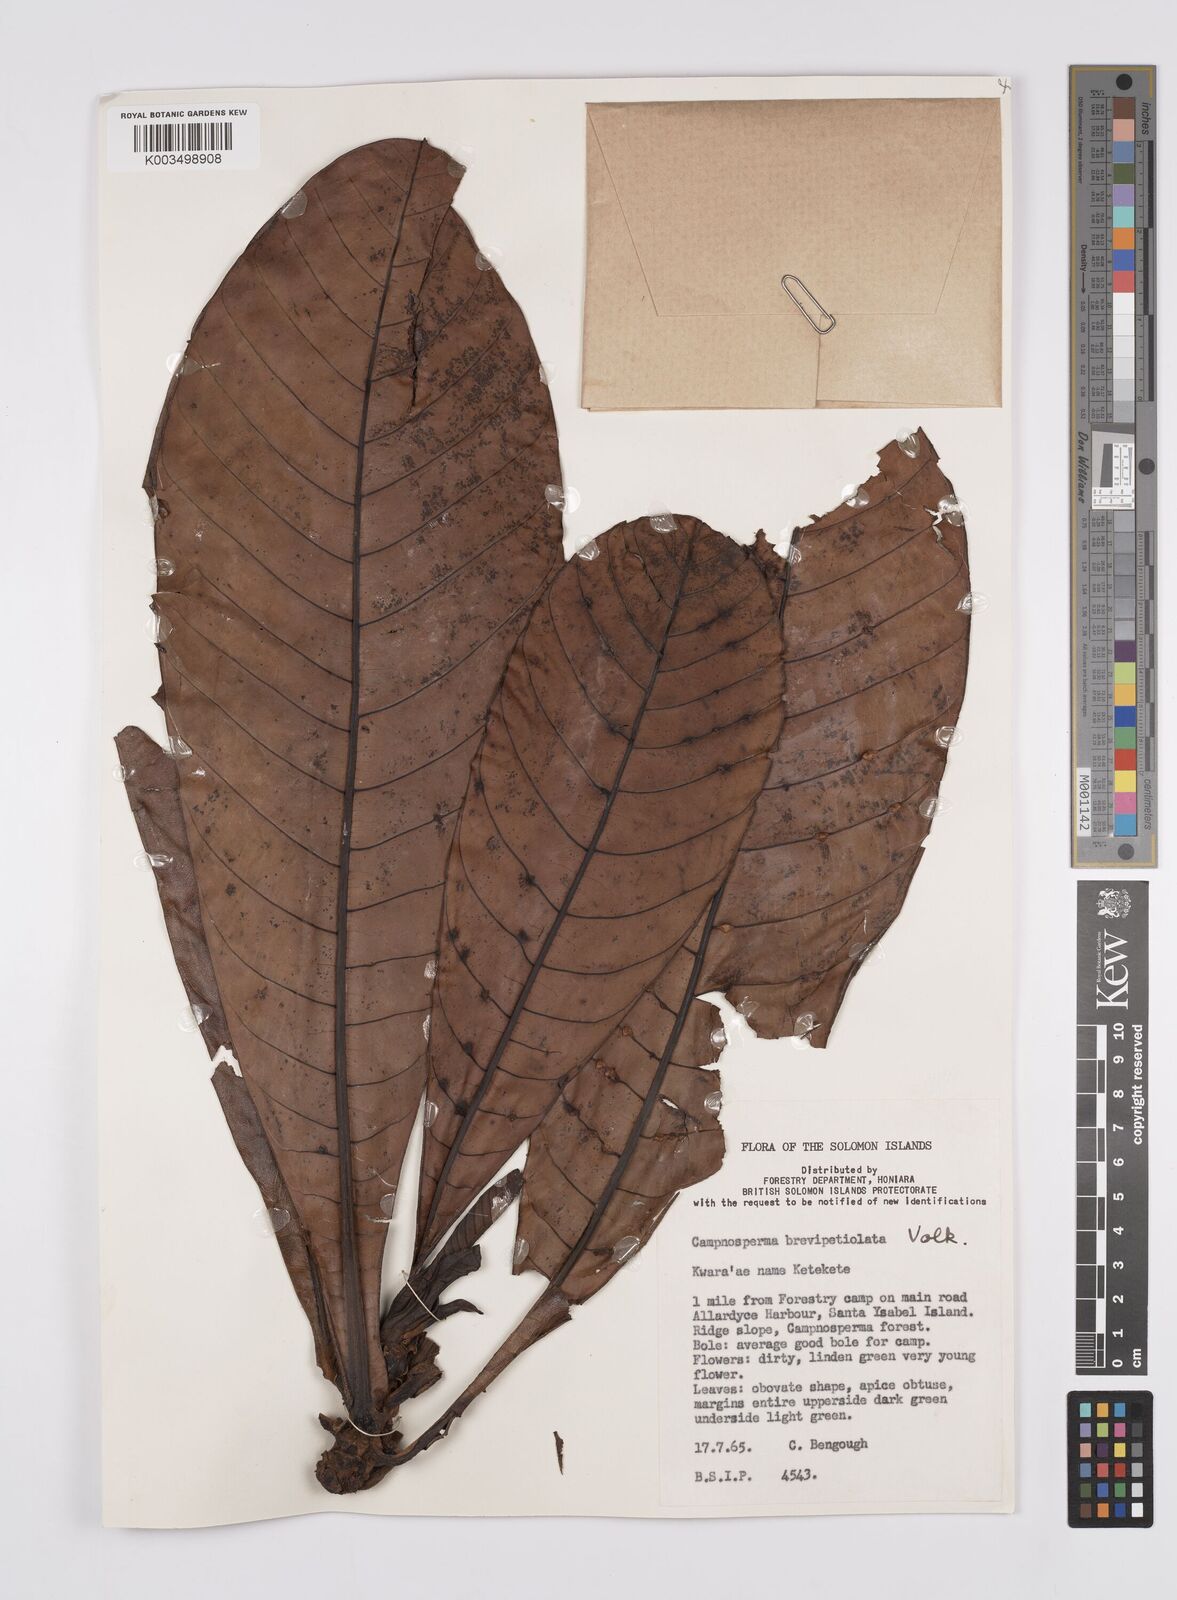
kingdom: Plantae
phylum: Tracheophyta
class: Magnoliopsida
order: Sapindales
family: Anacardiaceae
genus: Campnosperma
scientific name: Campnosperma brevipetiolatum
